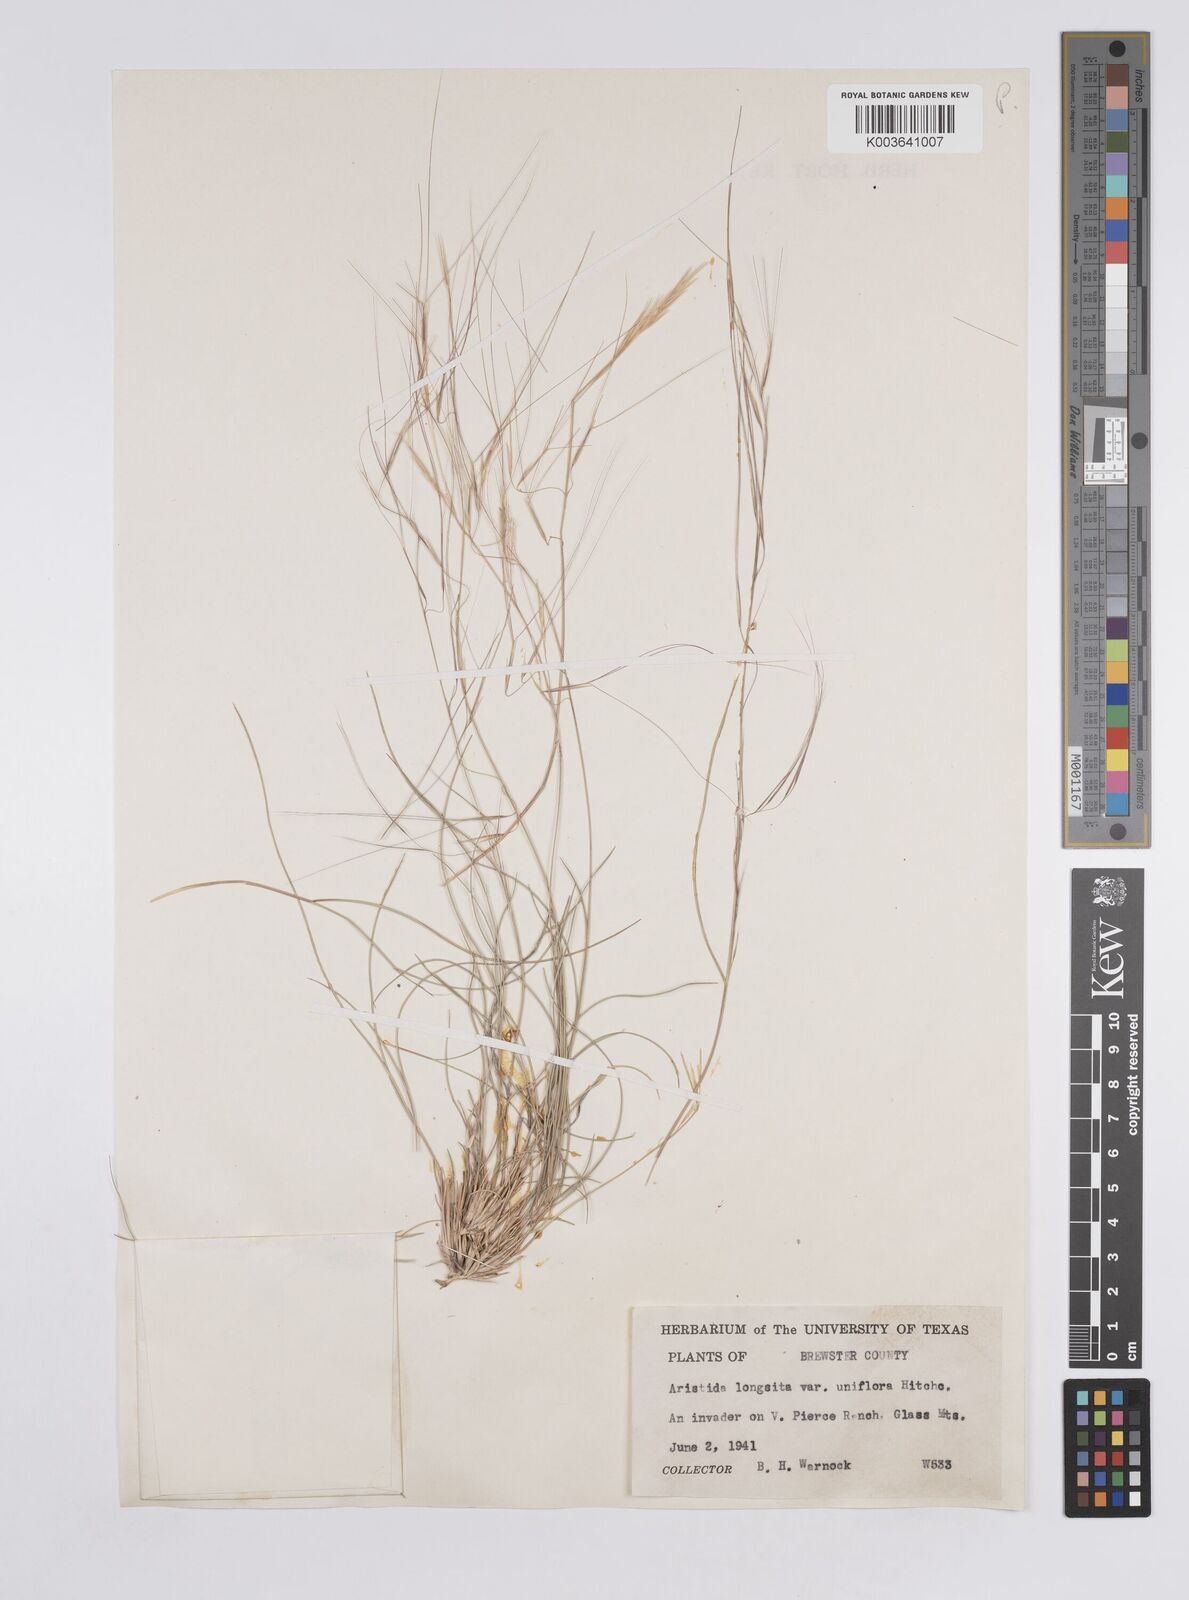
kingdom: Plantae
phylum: Tracheophyta
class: Liliopsida
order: Poales
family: Poaceae
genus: Aristida
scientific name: Aristida purpurea
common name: Purple threeawn
